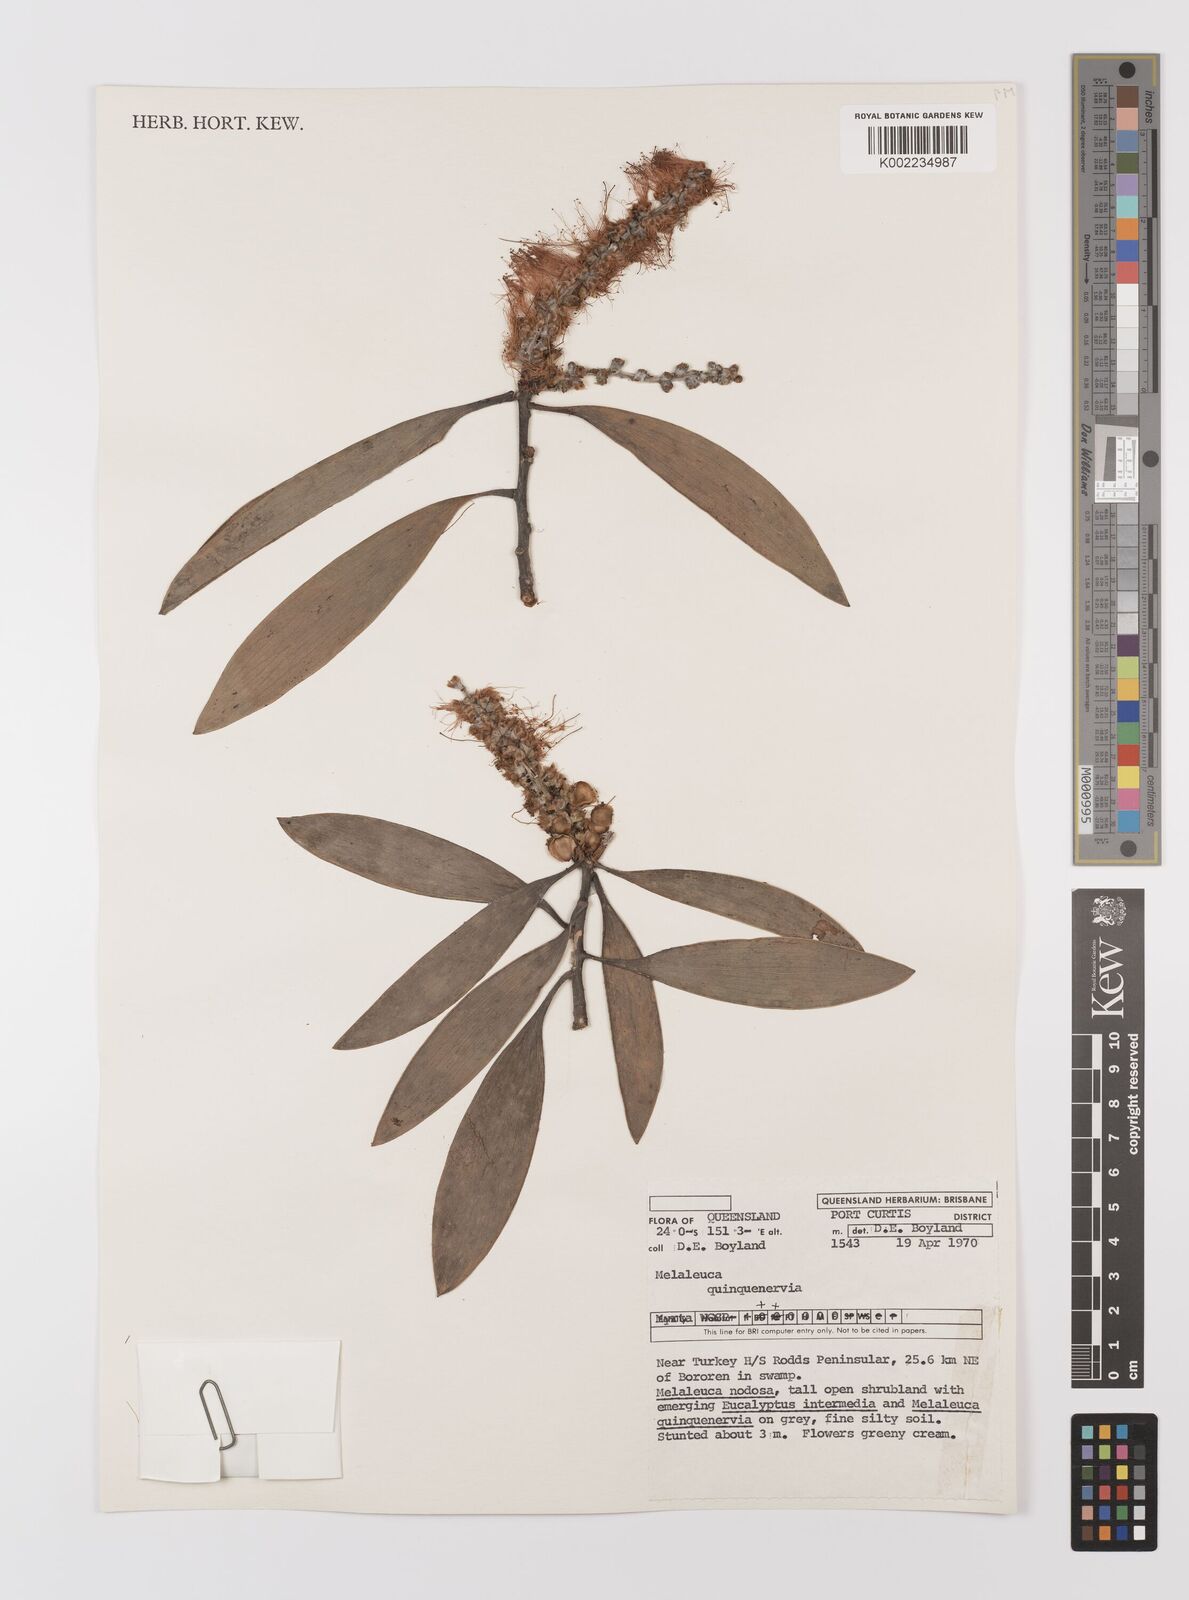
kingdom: Plantae
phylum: Tracheophyta
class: Magnoliopsida
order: Myrtales
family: Myrtaceae
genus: Melaleuca
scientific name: Melaleuca quinquenervia
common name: Punktree
